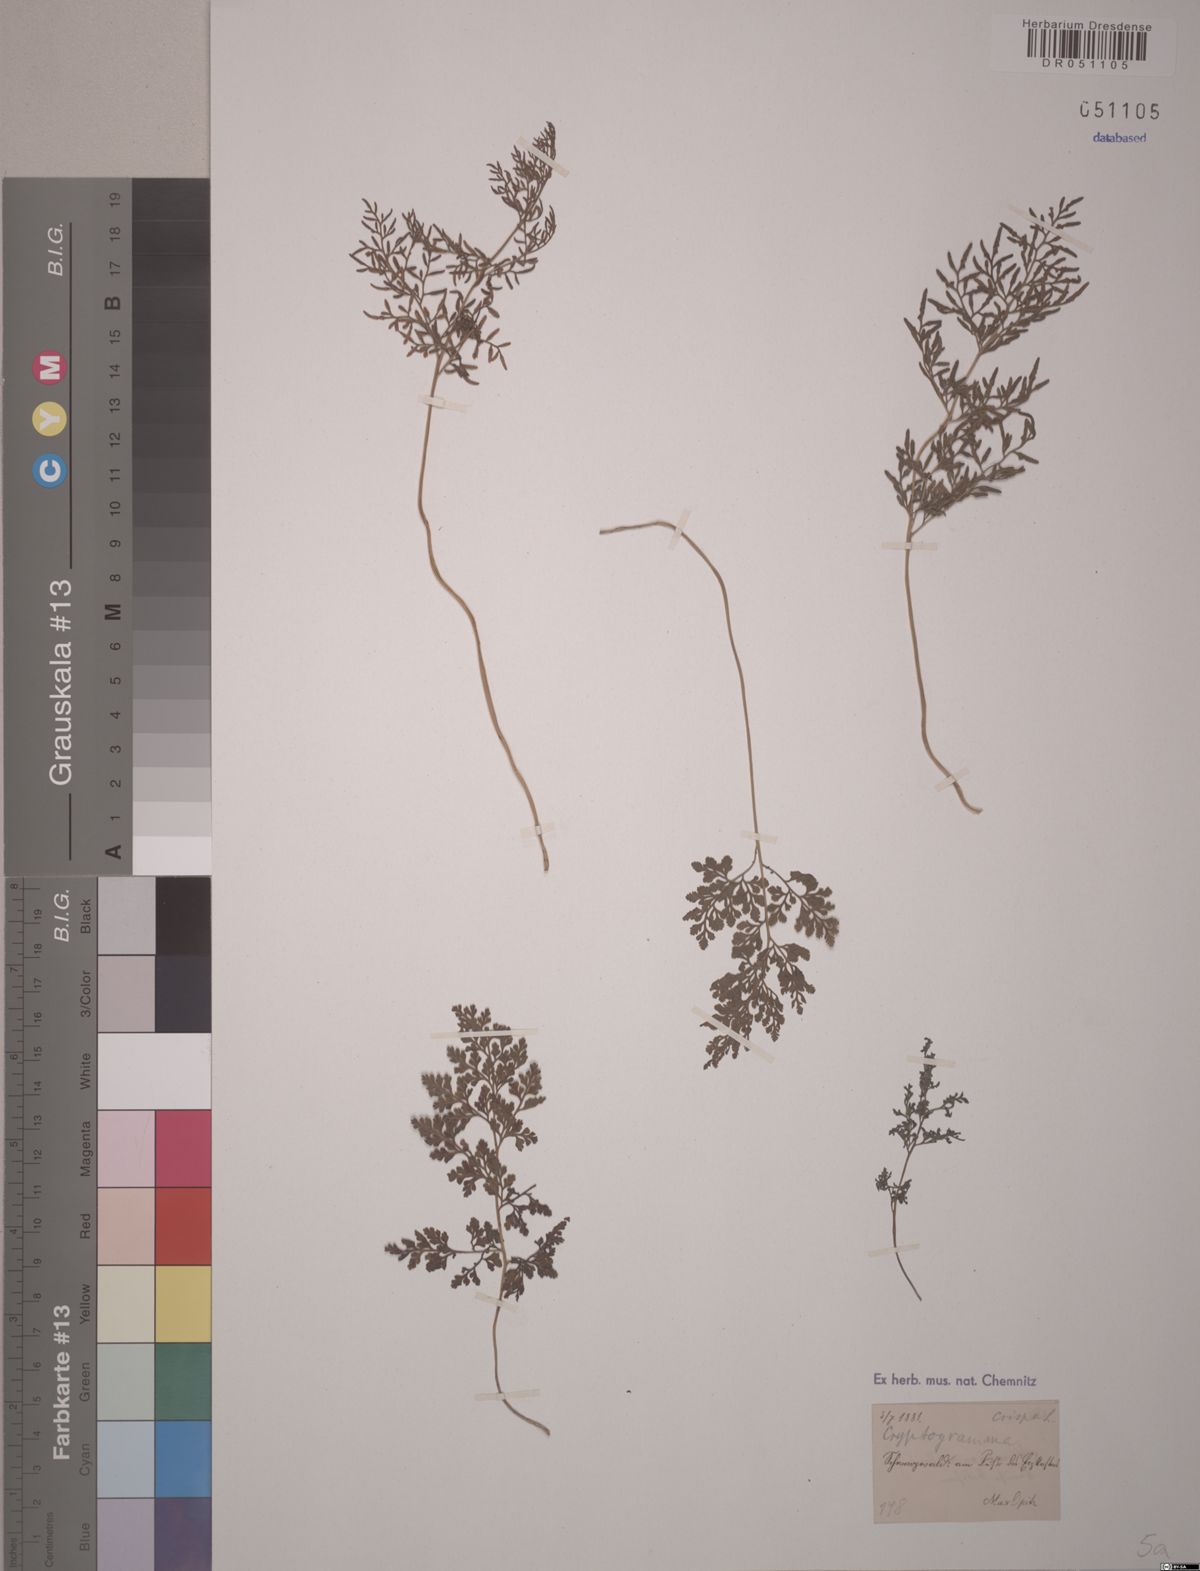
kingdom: Plantae
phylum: Tracheophyta
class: Polypodiopsida
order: Polypodiales
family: Pteridaceae
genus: Cryptogramma
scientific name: Cryptogramma crispa
